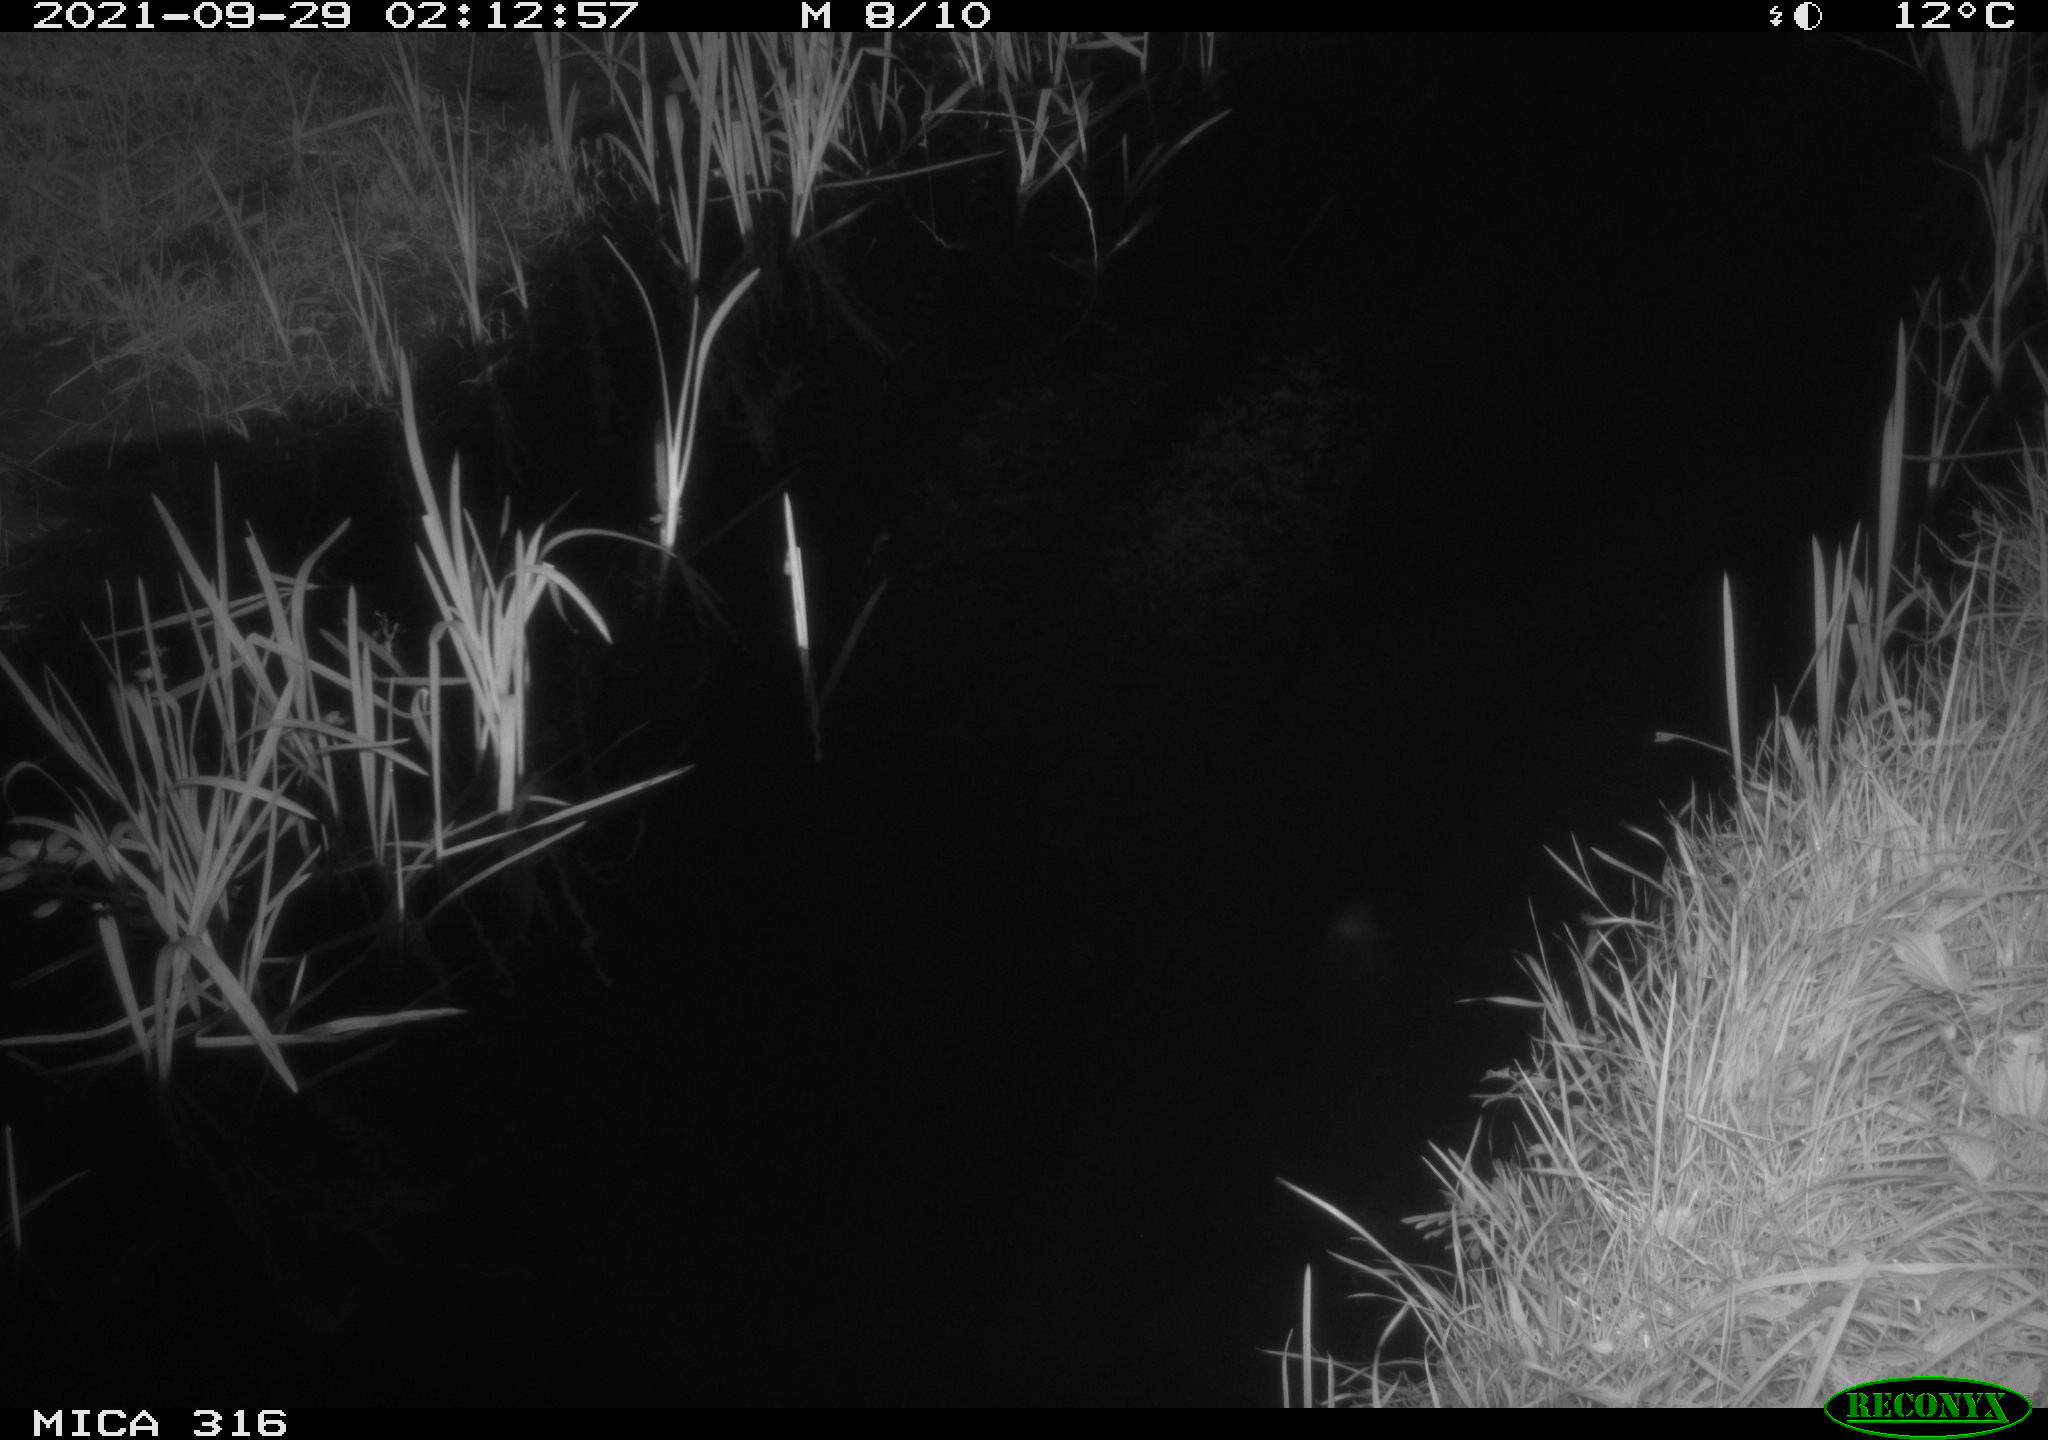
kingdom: Animalia
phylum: Chordata
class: Mammalia
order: Rodentia
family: Muridae
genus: Rattus
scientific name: Rattus norvegicus
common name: Brown rat
